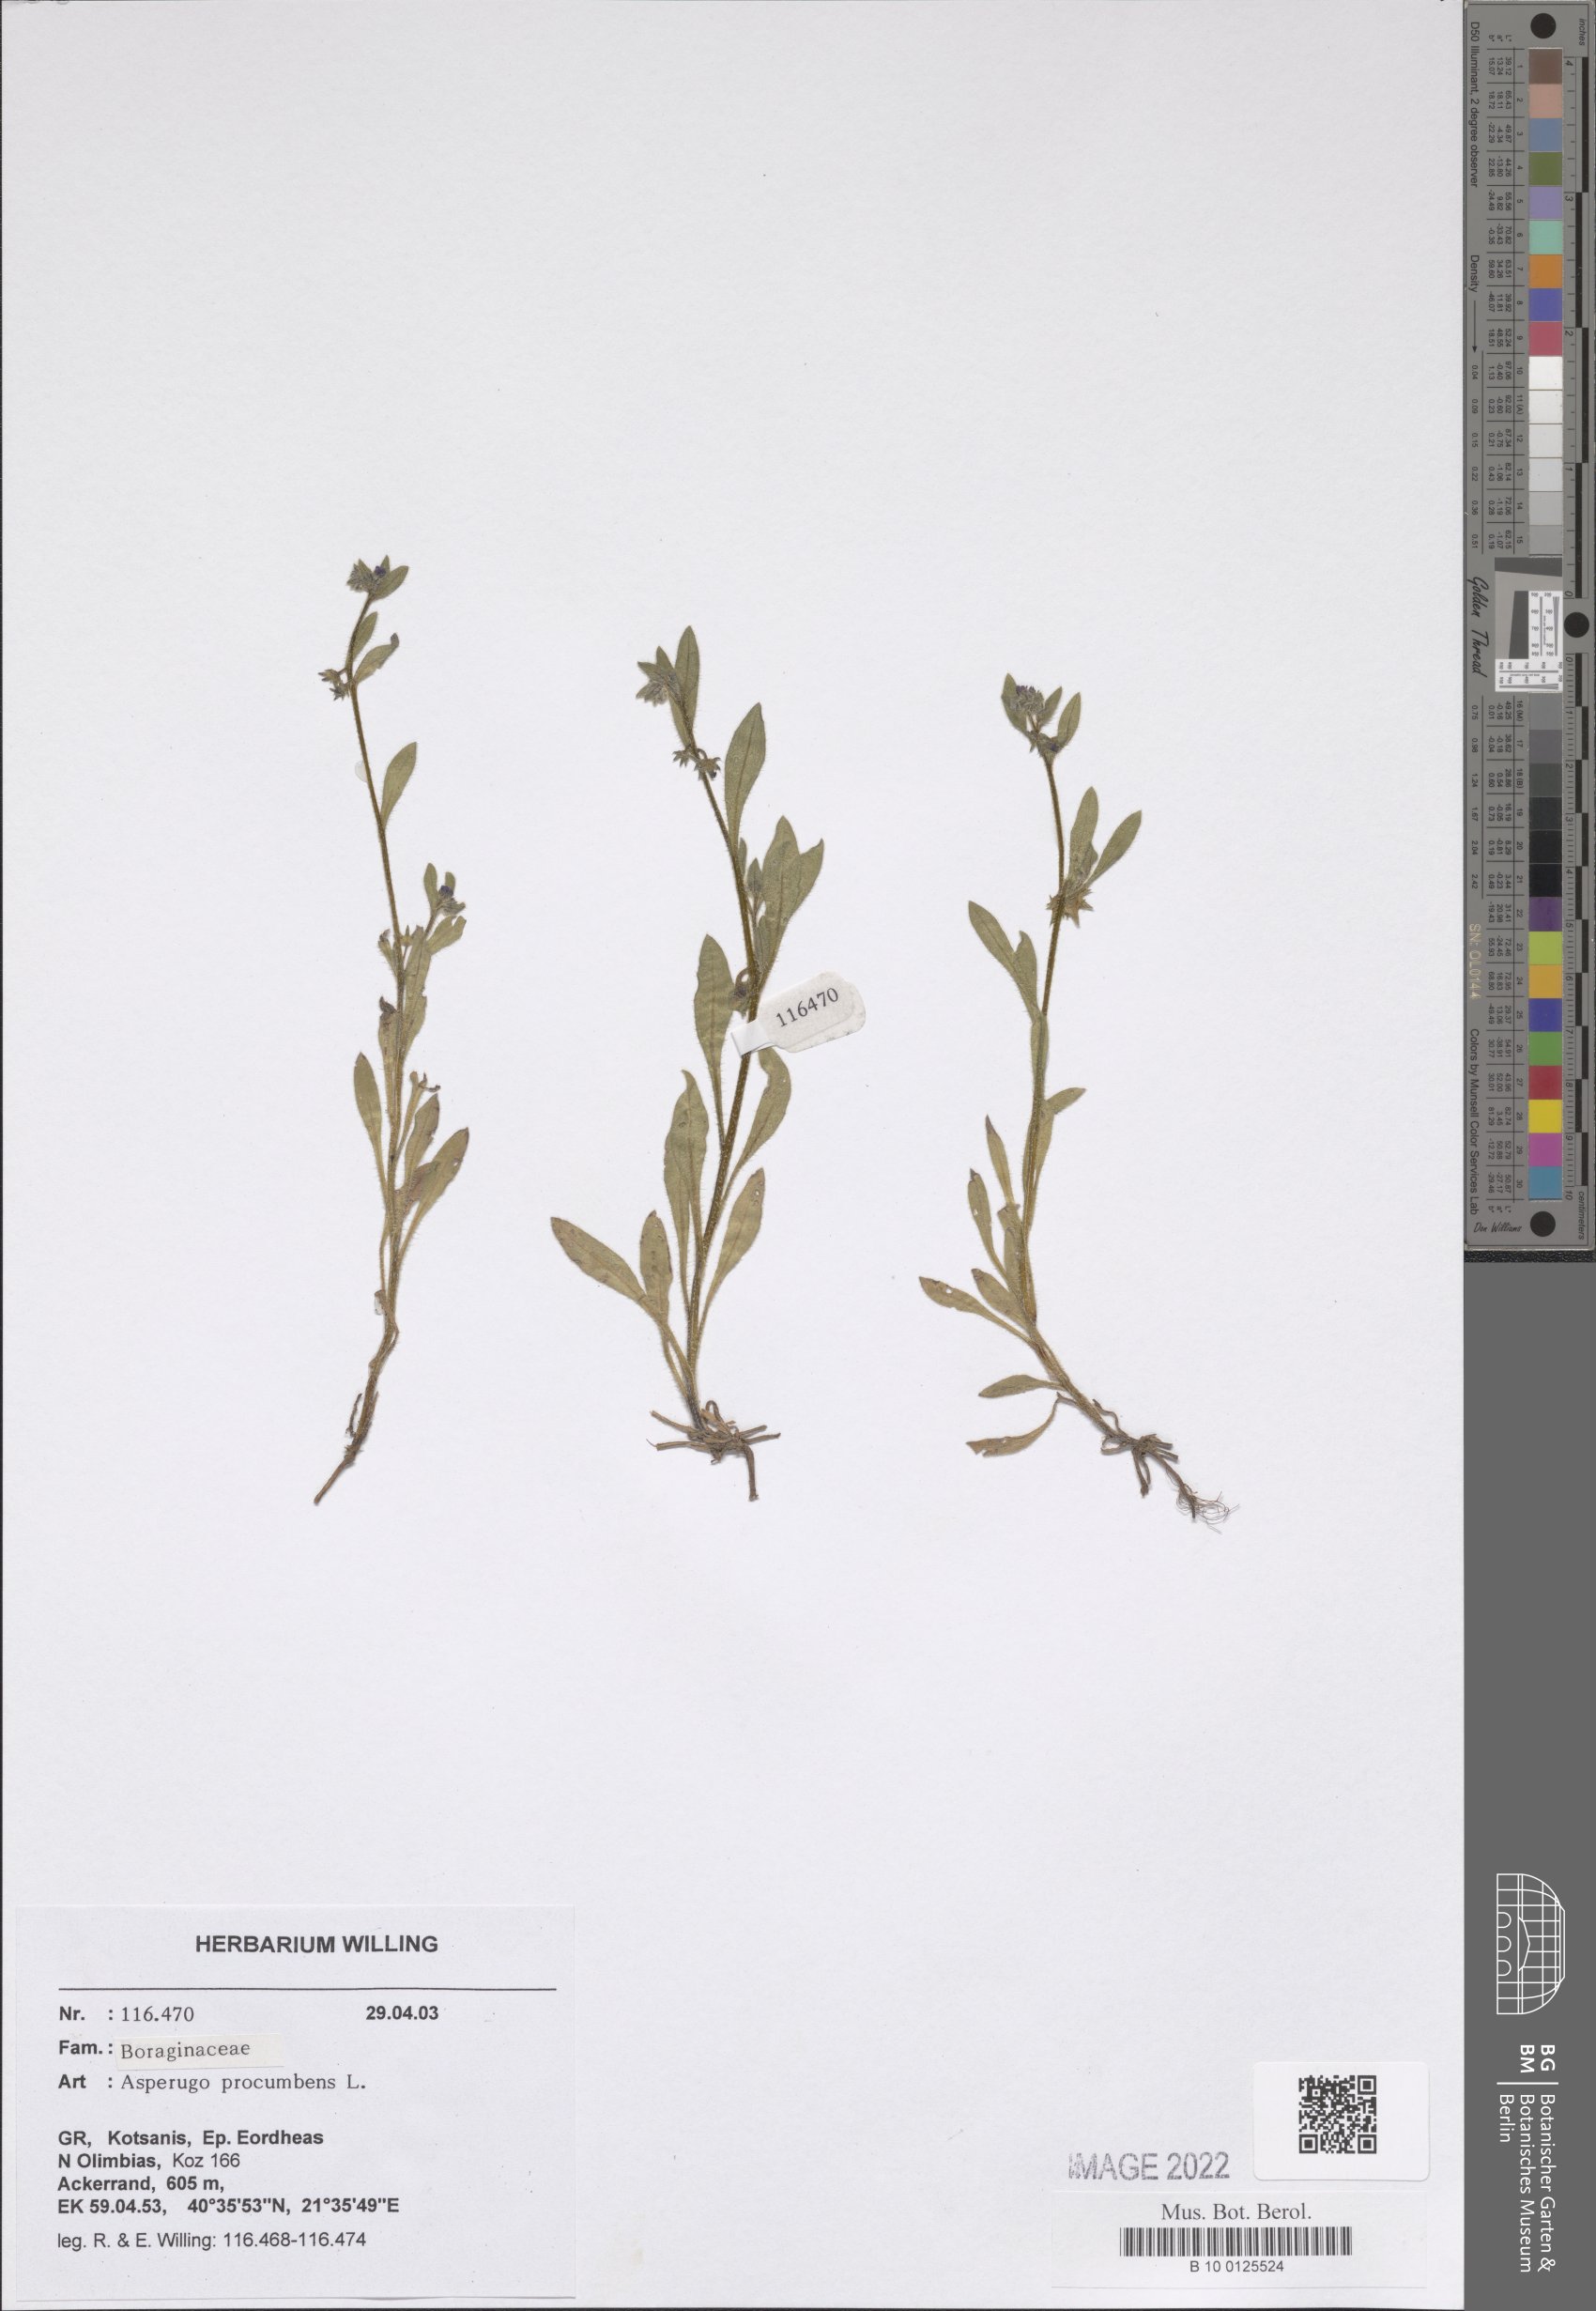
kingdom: Plantae
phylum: Tracheophyta
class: Magnoliopsida
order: Boraginales
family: Boraginaceae
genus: Asperugo
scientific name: Asperugo procumbens
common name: Madwort
